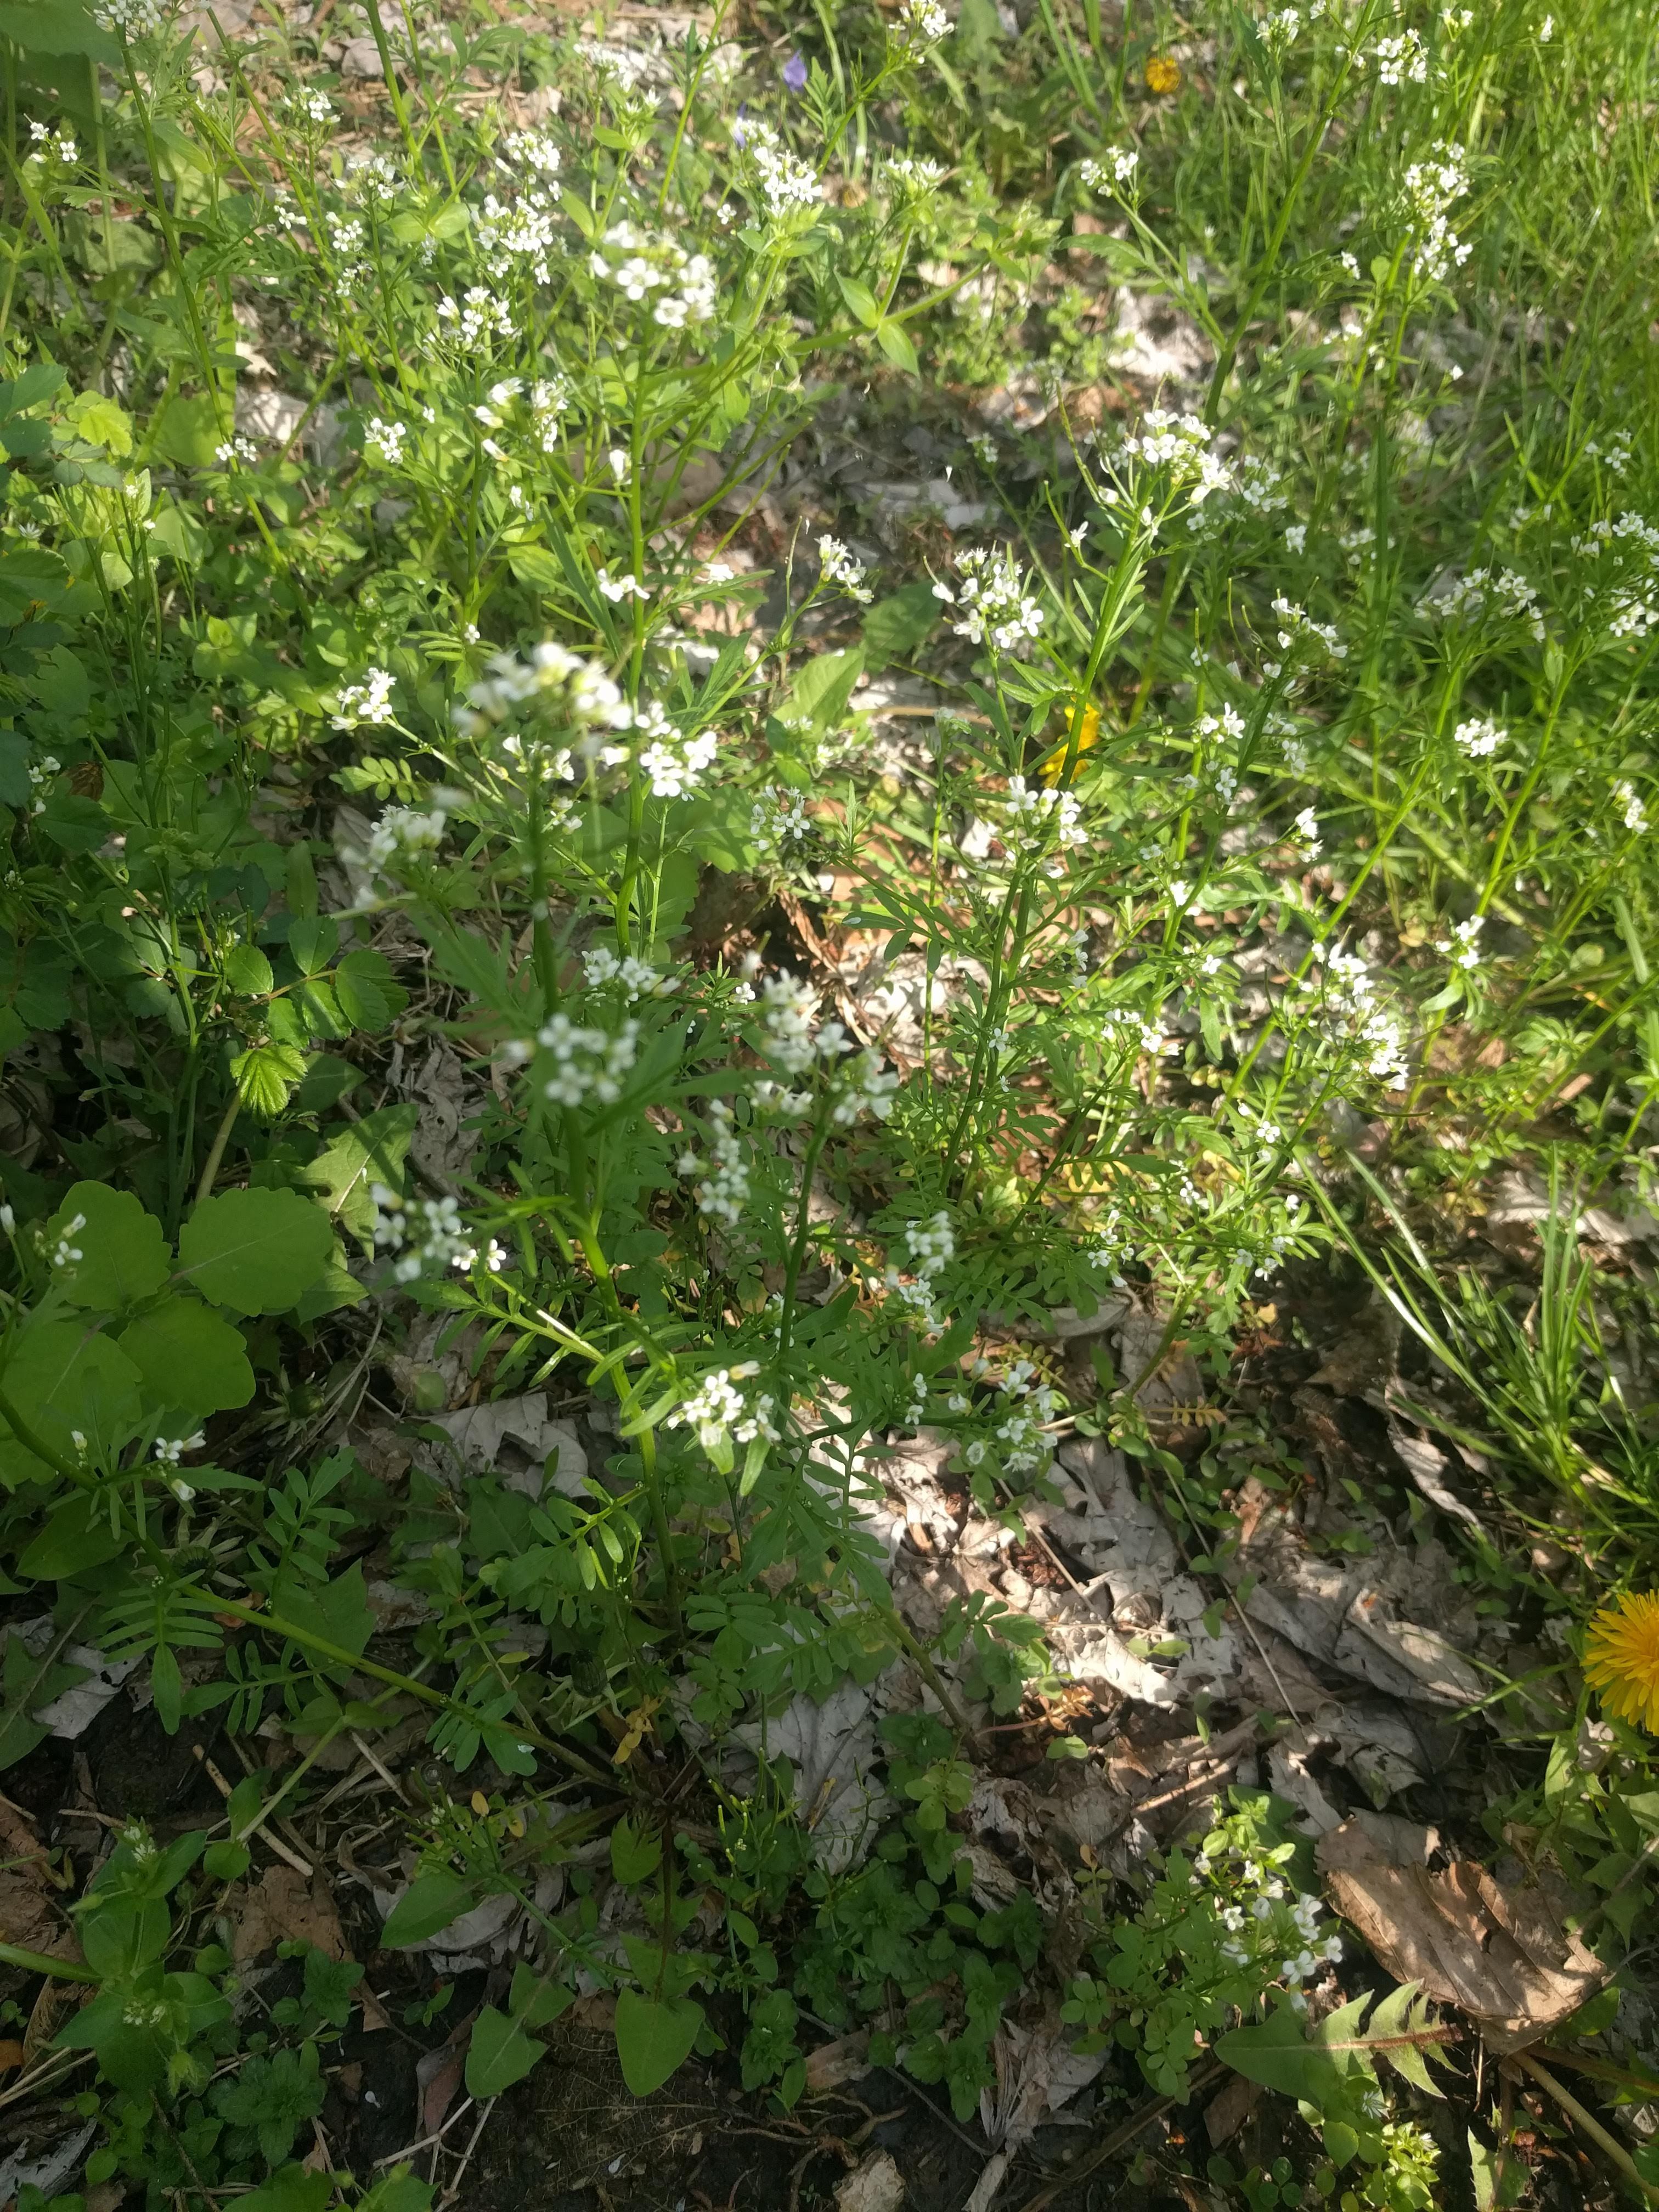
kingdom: Plantae
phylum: Tracheophyta
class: Magnoliopsida
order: Brassicales
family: Brassicaceae
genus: Cardamine
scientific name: Cardamine pensylvanica
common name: Pennsylvania bittercress
